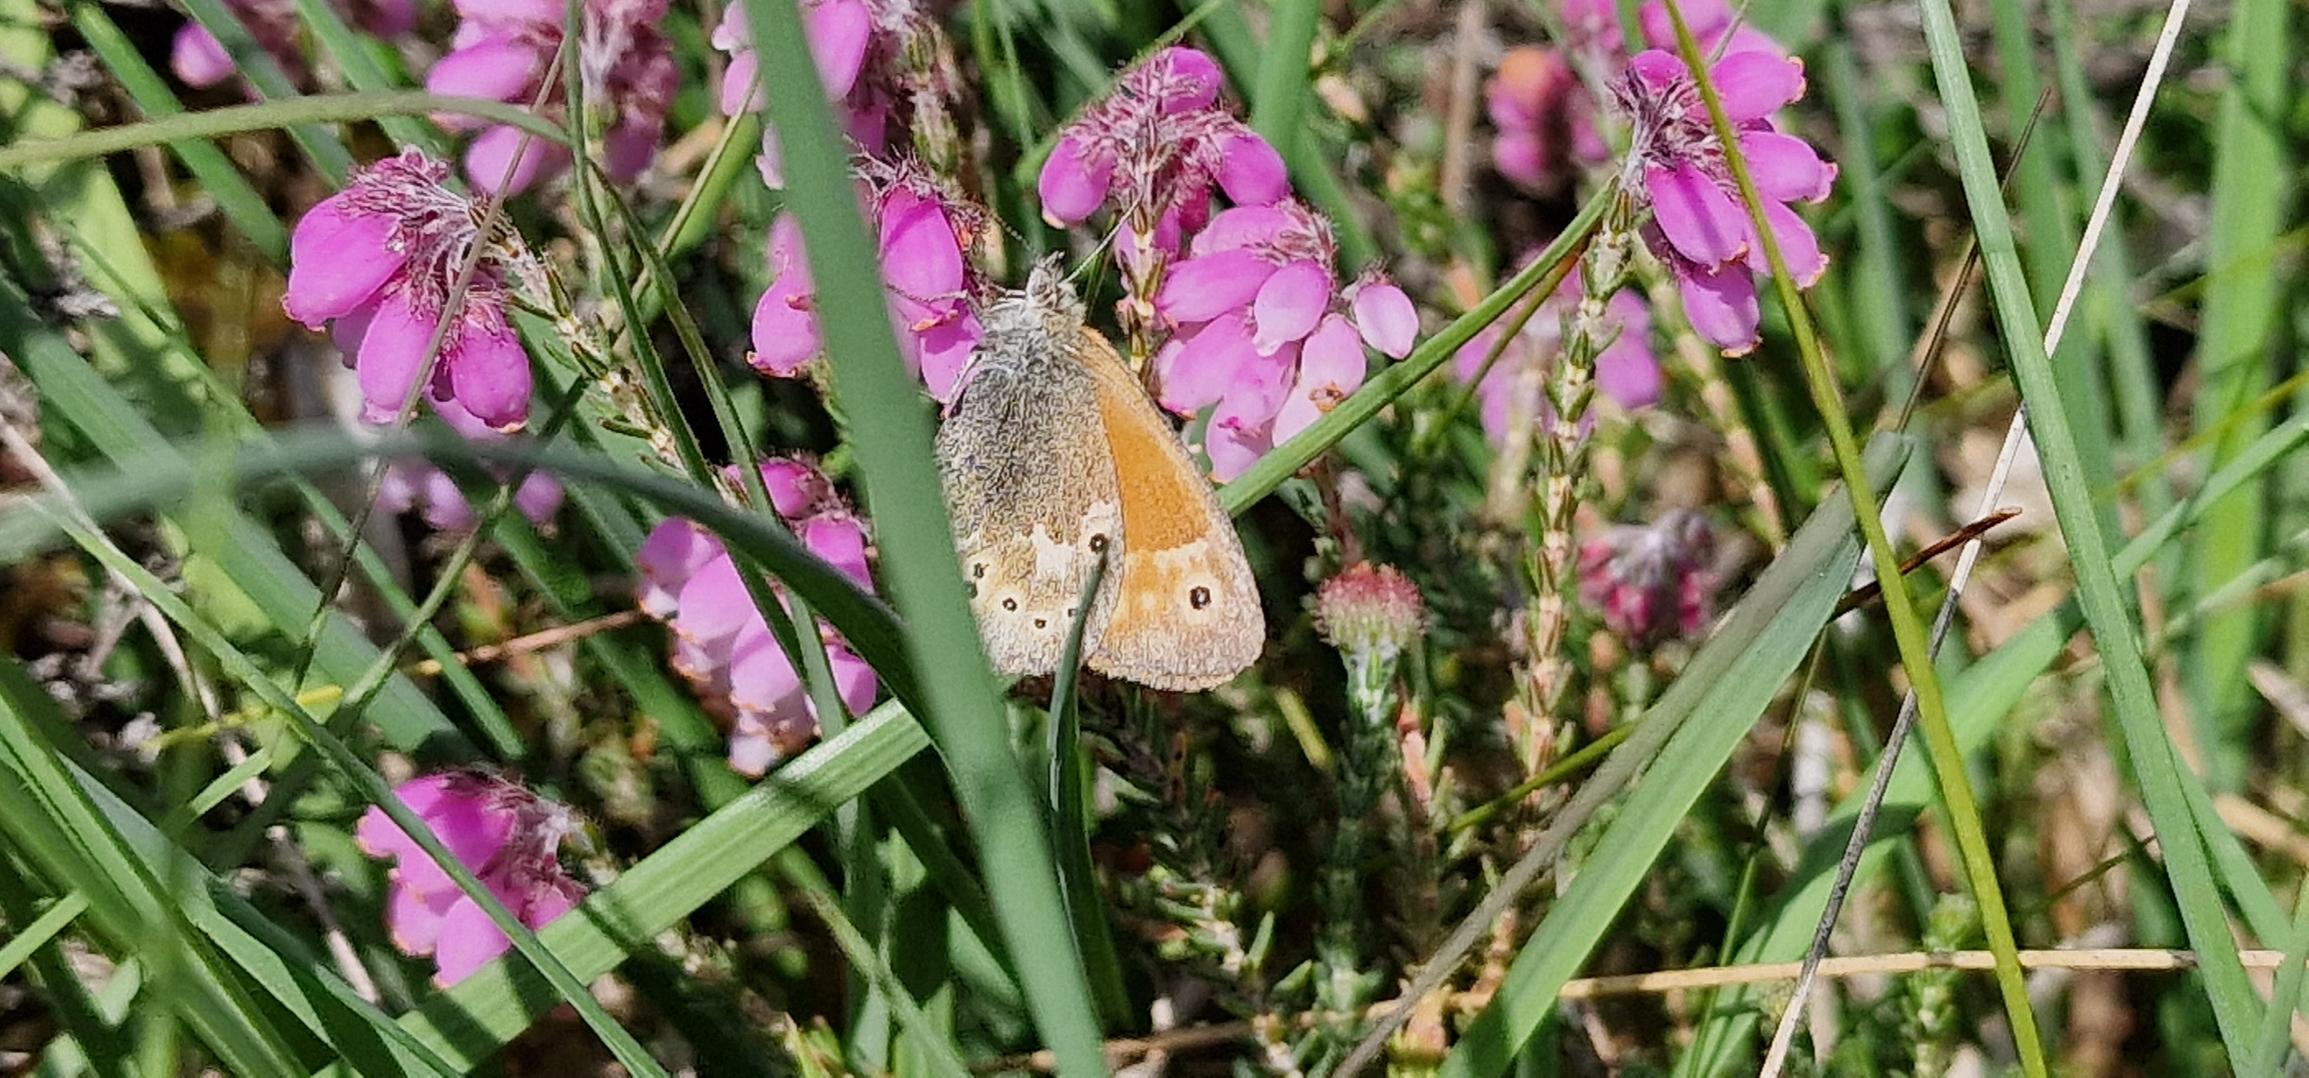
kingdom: Animalia
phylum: Arthropoda
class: Insecta
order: Lepidoptera
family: Nymphalidae
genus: Coenonympha
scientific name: Coenonympha tullia
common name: Moserandøje
